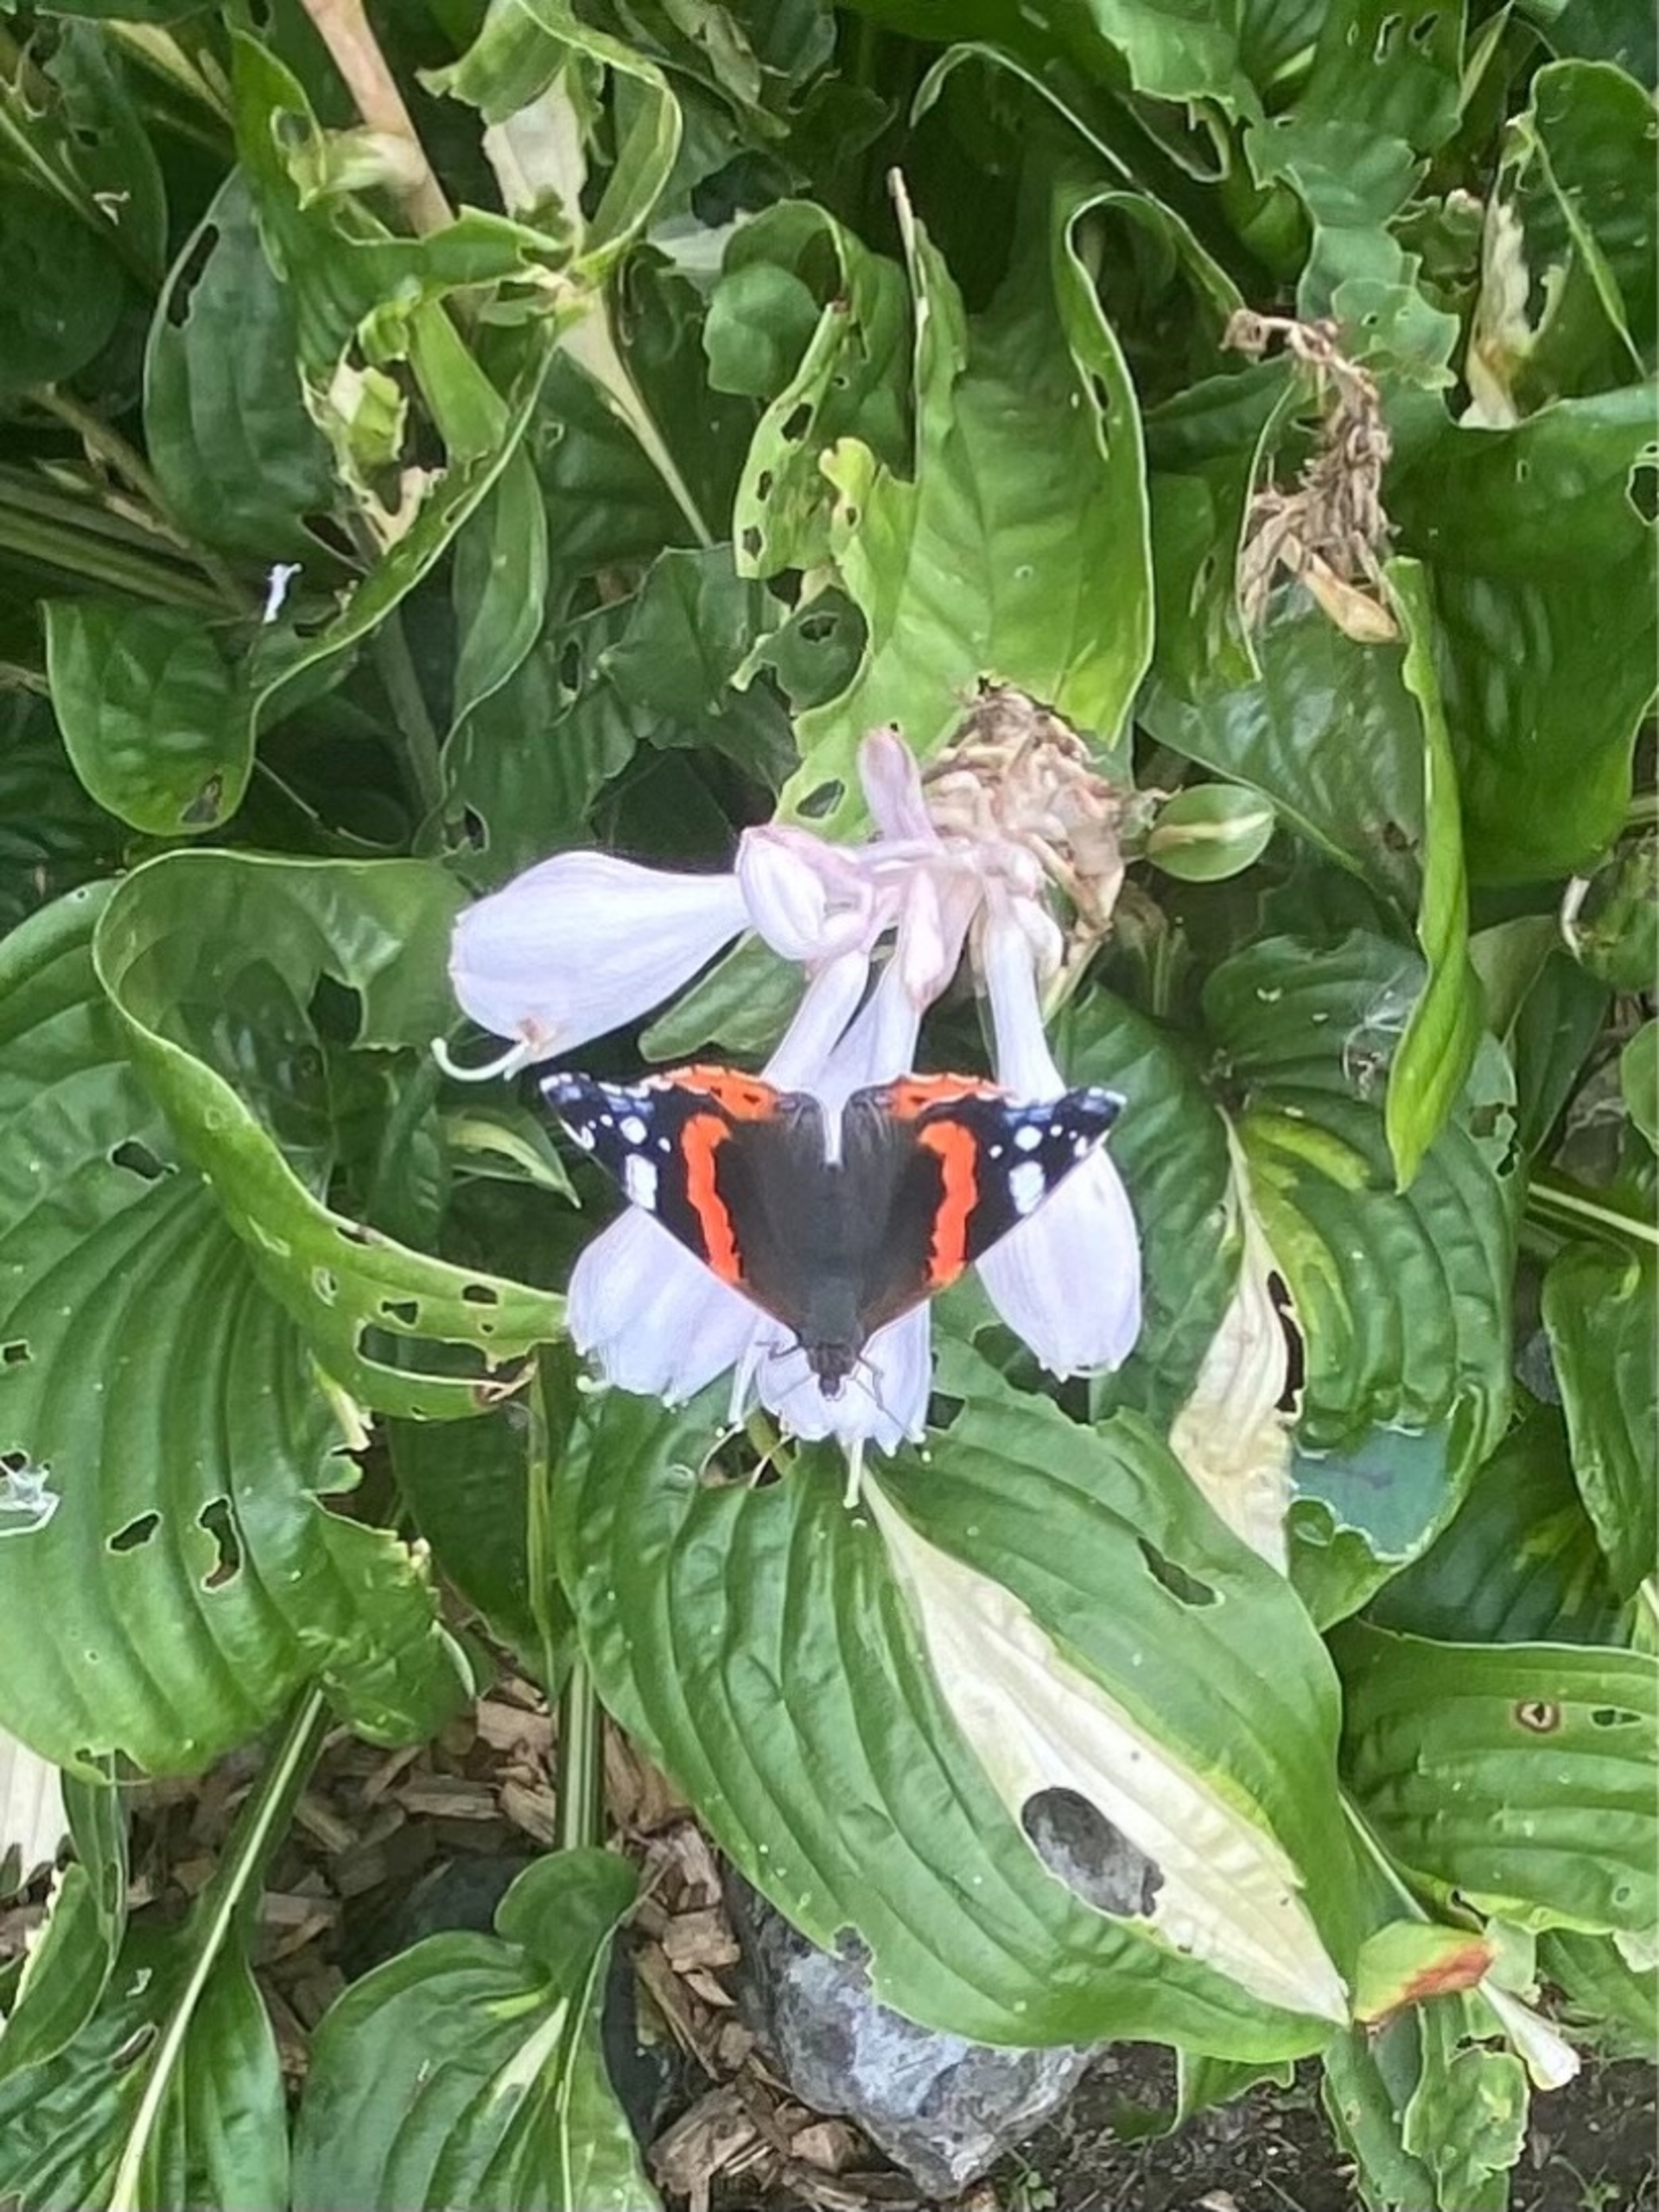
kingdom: Animalia
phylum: Arthropoda
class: Insecta
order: Lepidoptera
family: Nymphalidae
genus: Vanessa
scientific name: Vanessa atalanta
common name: Admiral
